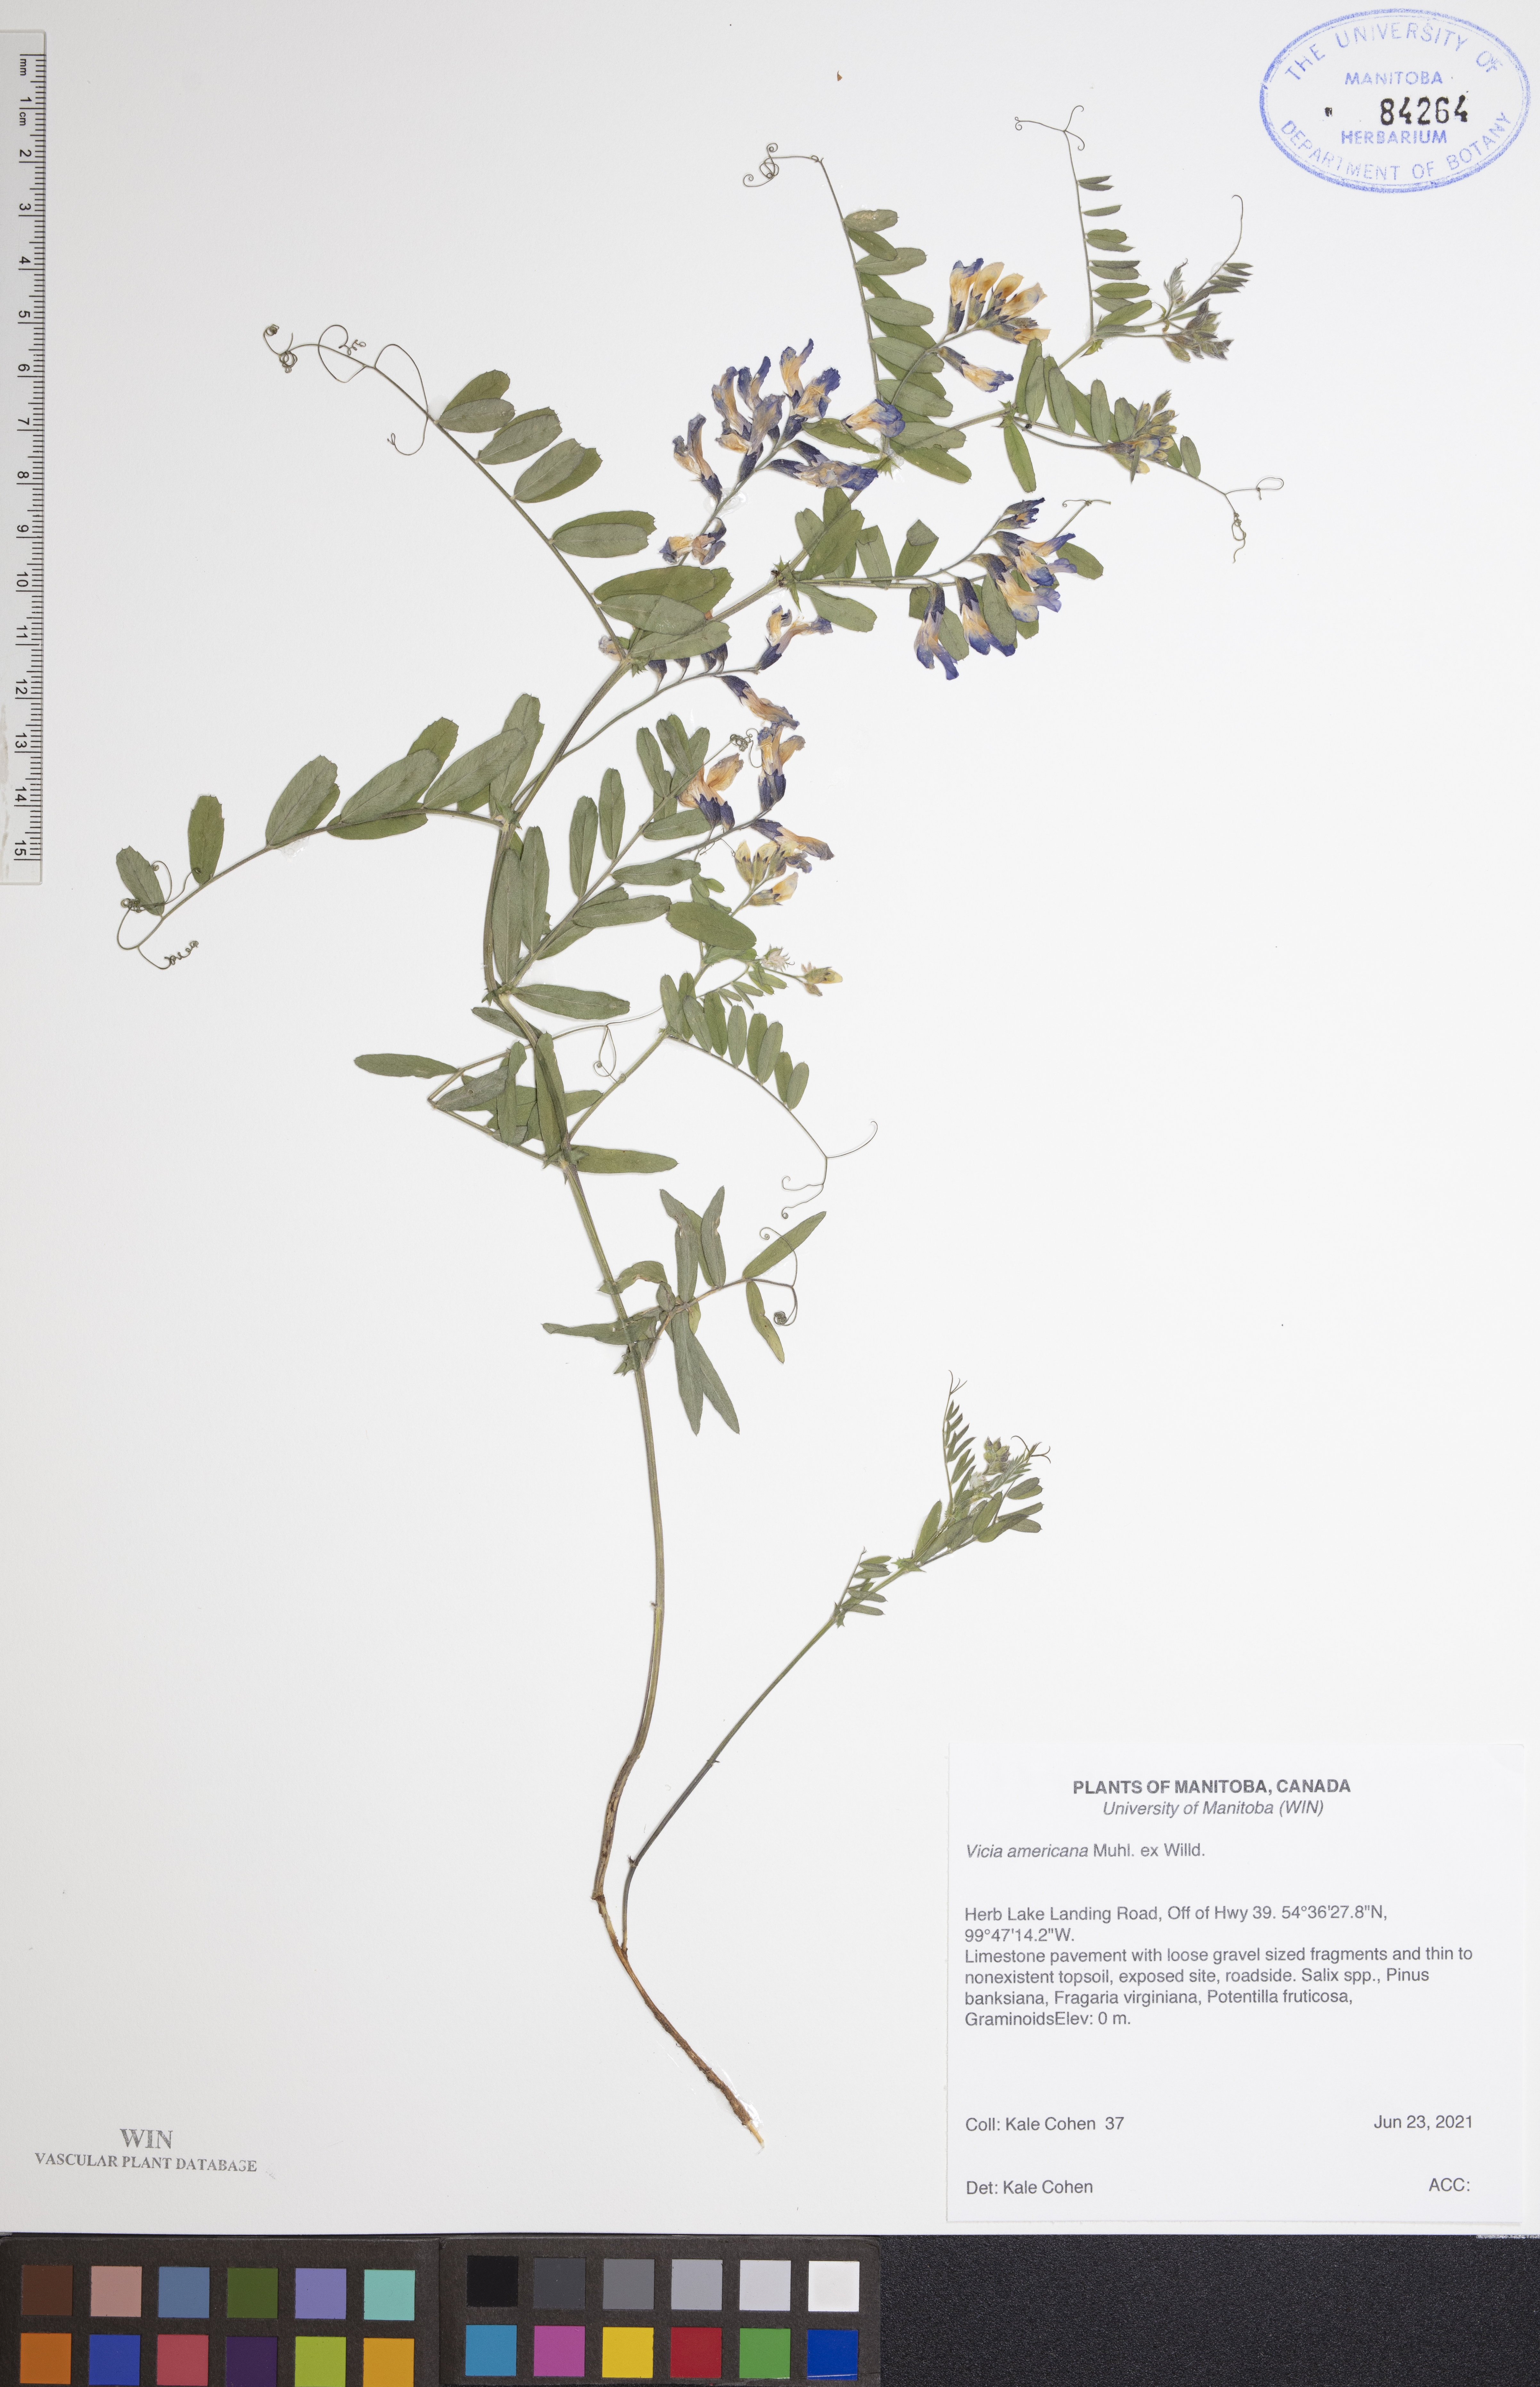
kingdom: Plantae
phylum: Tracheophyta
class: Magnoliopsida
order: Fabales
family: Fabaceae
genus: Vicia
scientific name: Vicia americana
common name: American vetch
